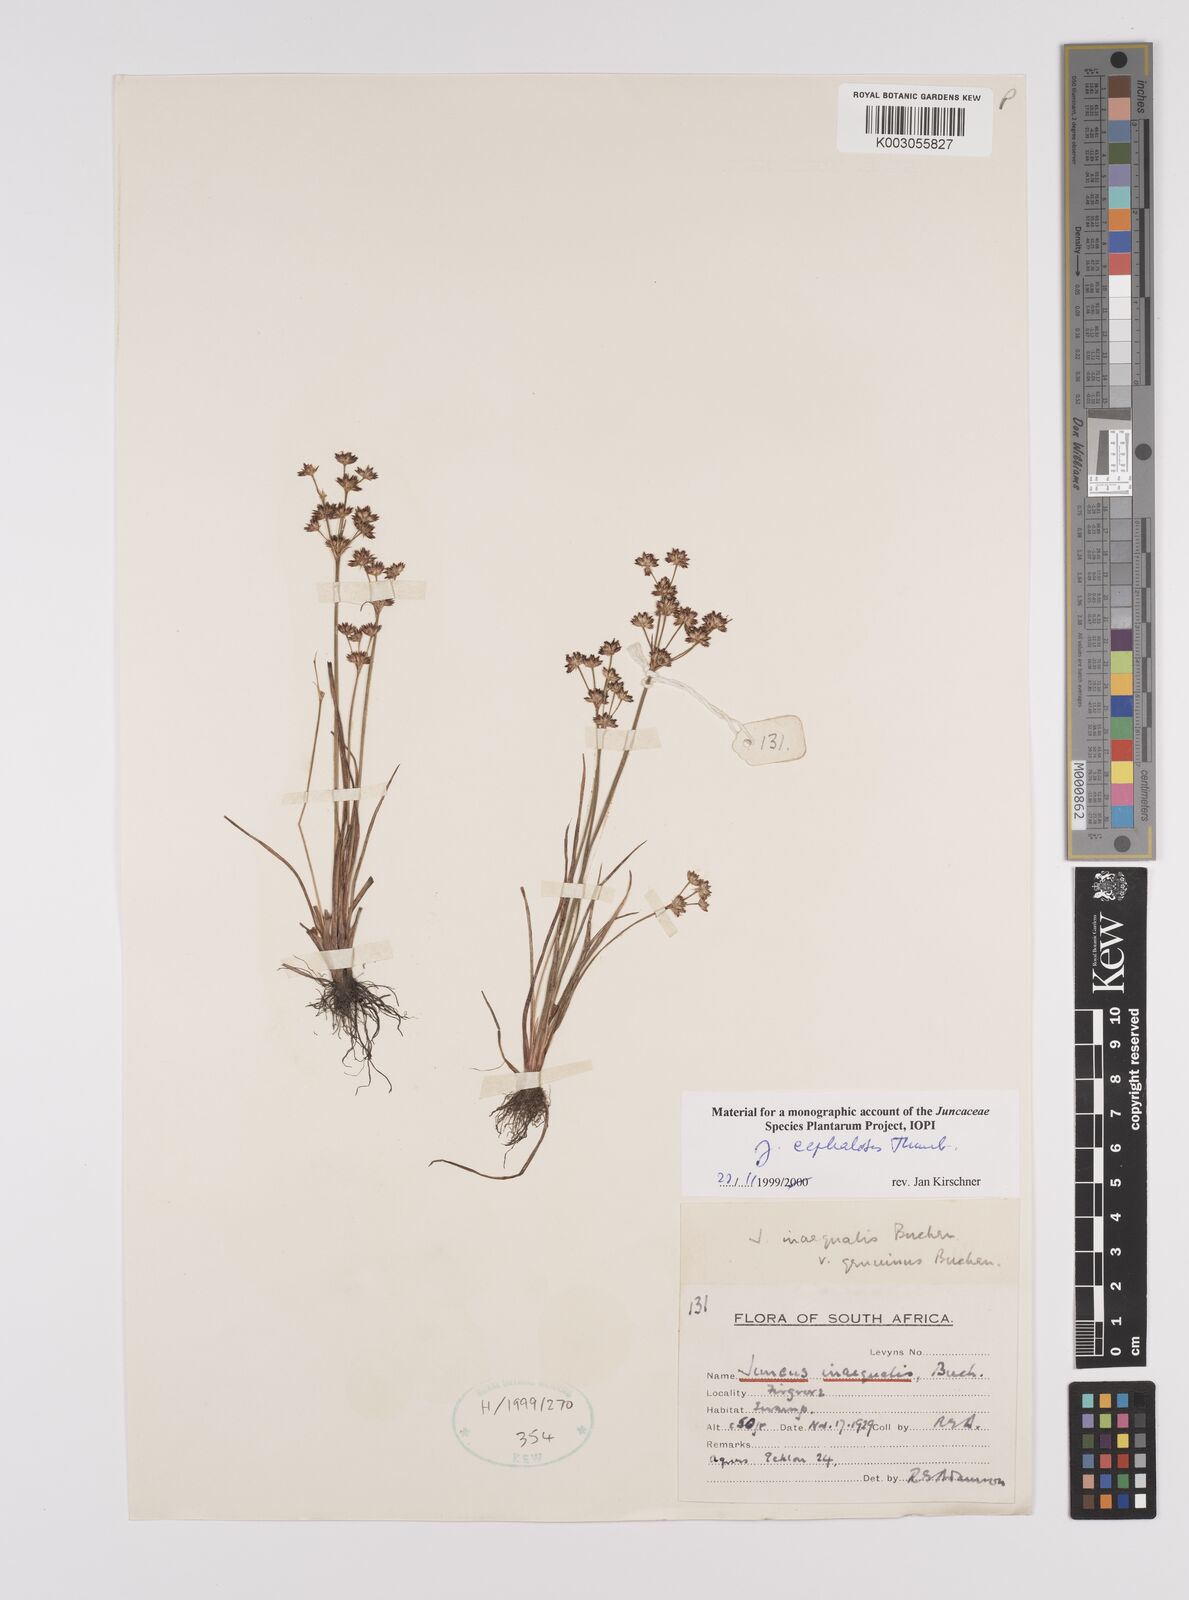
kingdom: Plantae
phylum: Tracheophyta
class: Liliopsida
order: Poales
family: Juncaceae
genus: Juncus
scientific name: Juncus cephalotes
